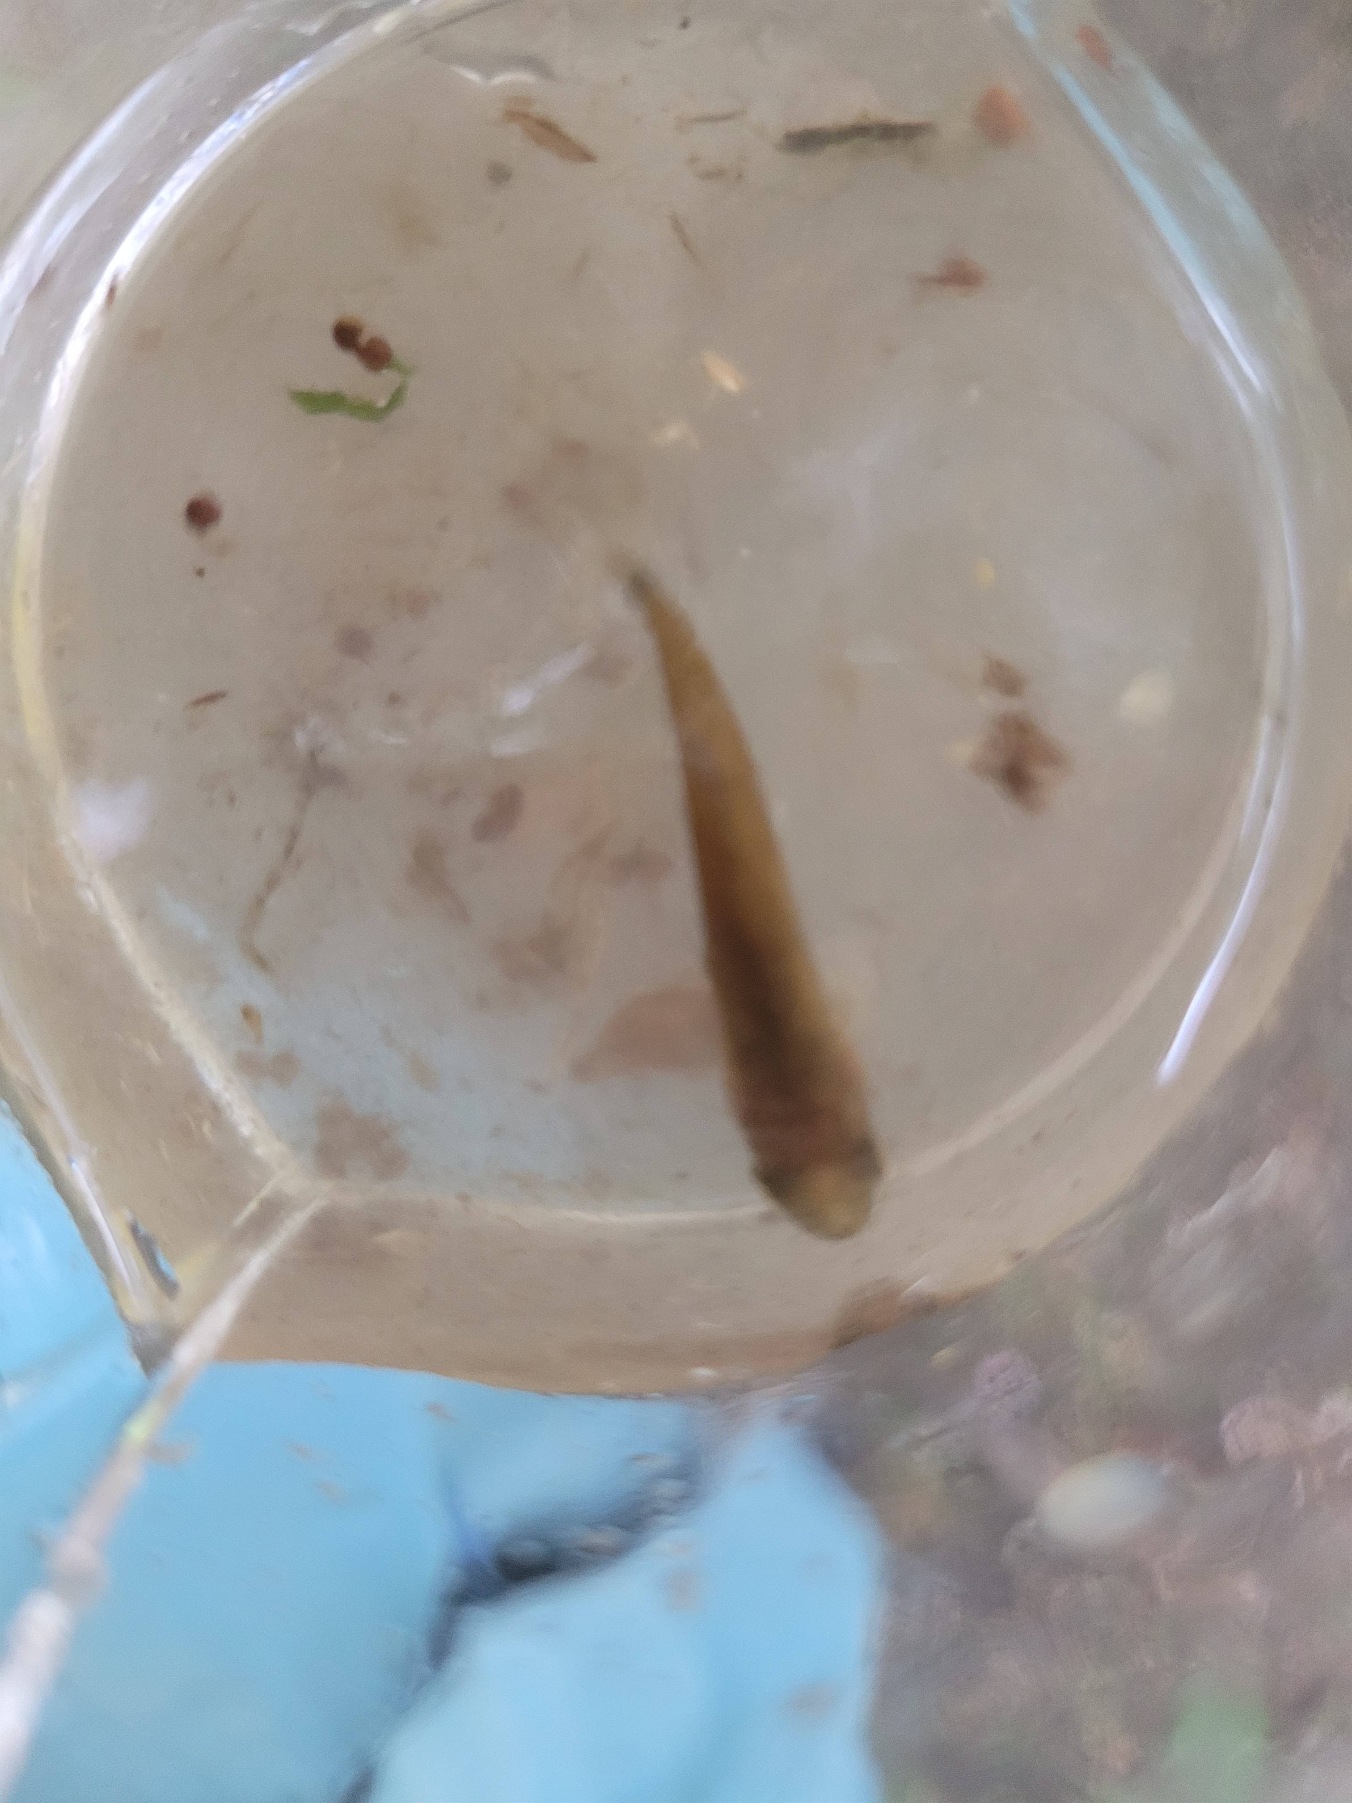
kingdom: Animalia
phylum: Chordata
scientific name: Chordata
